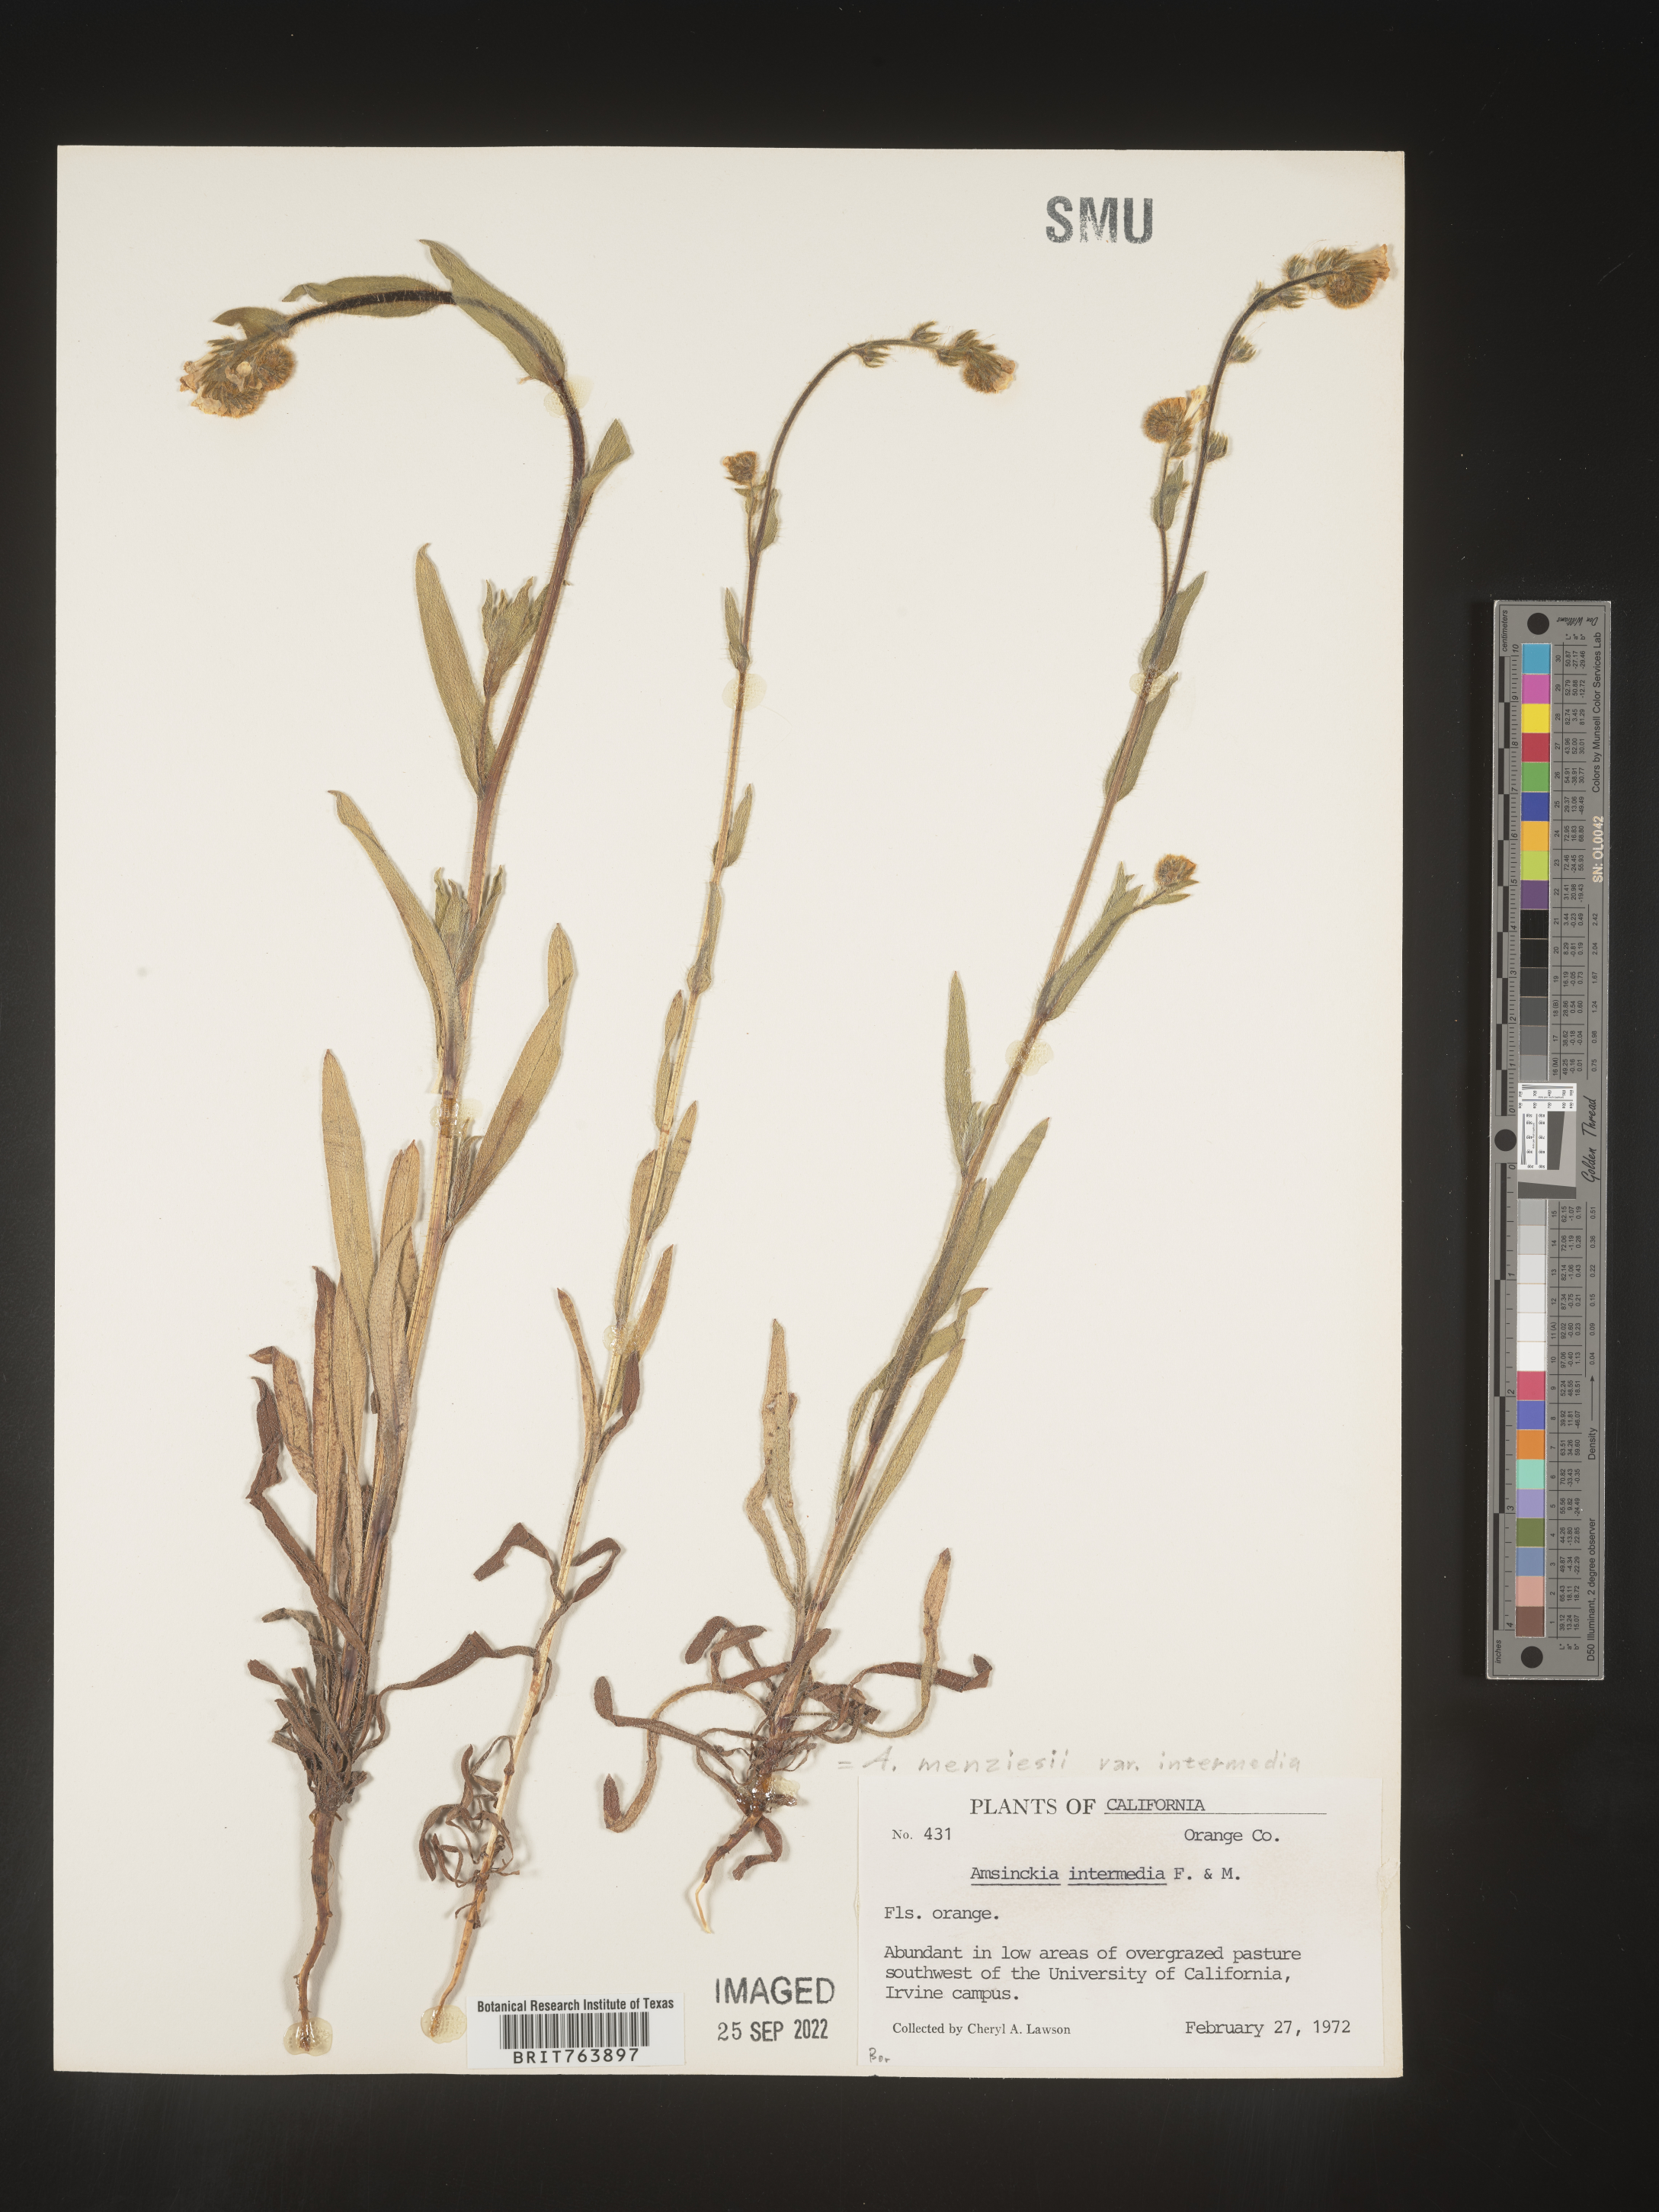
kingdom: Plantae
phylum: Tracheophyta
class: Magnoliopsida
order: Boraginales
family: Boraginaceae
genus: Amsinckia
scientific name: Amsinckia menziesii
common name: Menzies' fiddleneck
